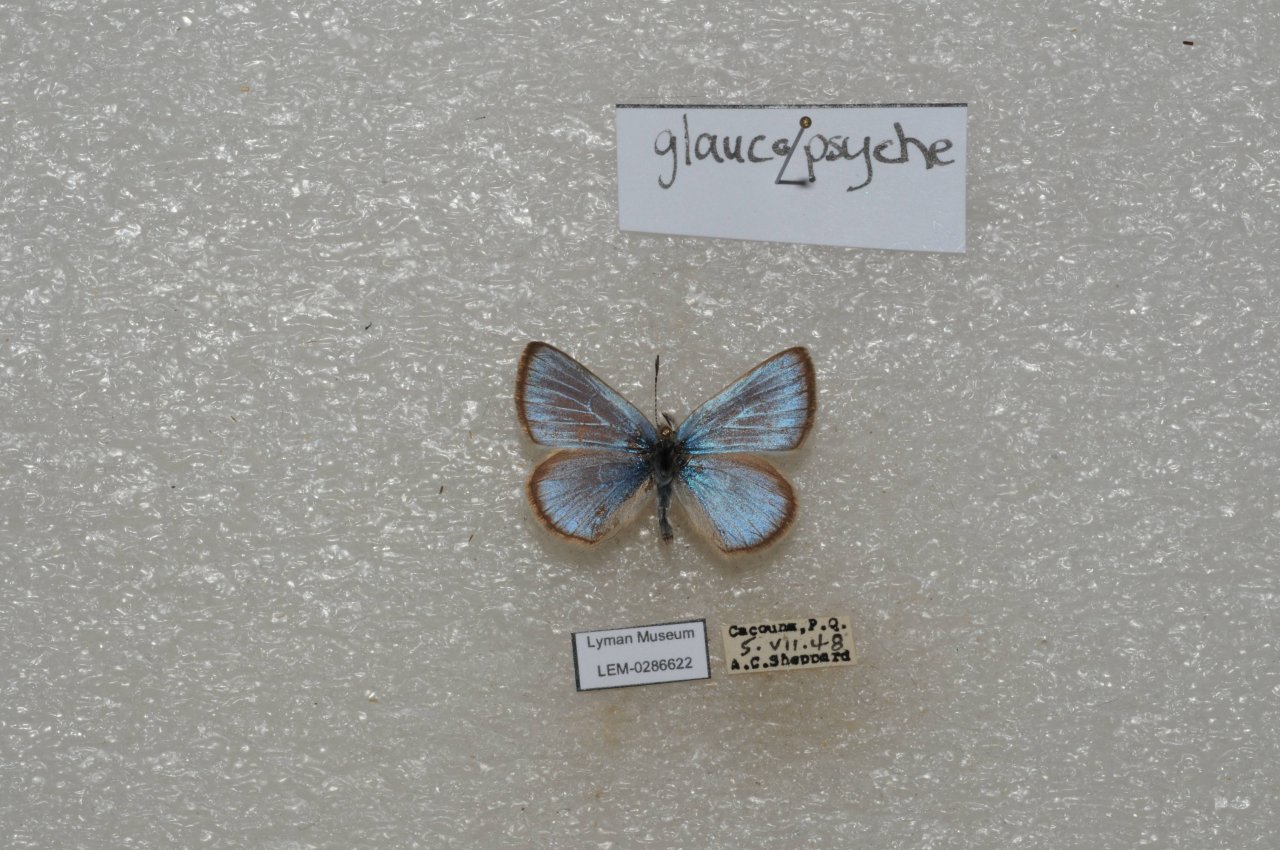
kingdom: Animalia
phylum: Arthropoda
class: Insecta
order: Lepidoptera
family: Lycaenidae
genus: Glaucopsyche
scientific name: Glaucopsyche lygdamus
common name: Silvery Blue
